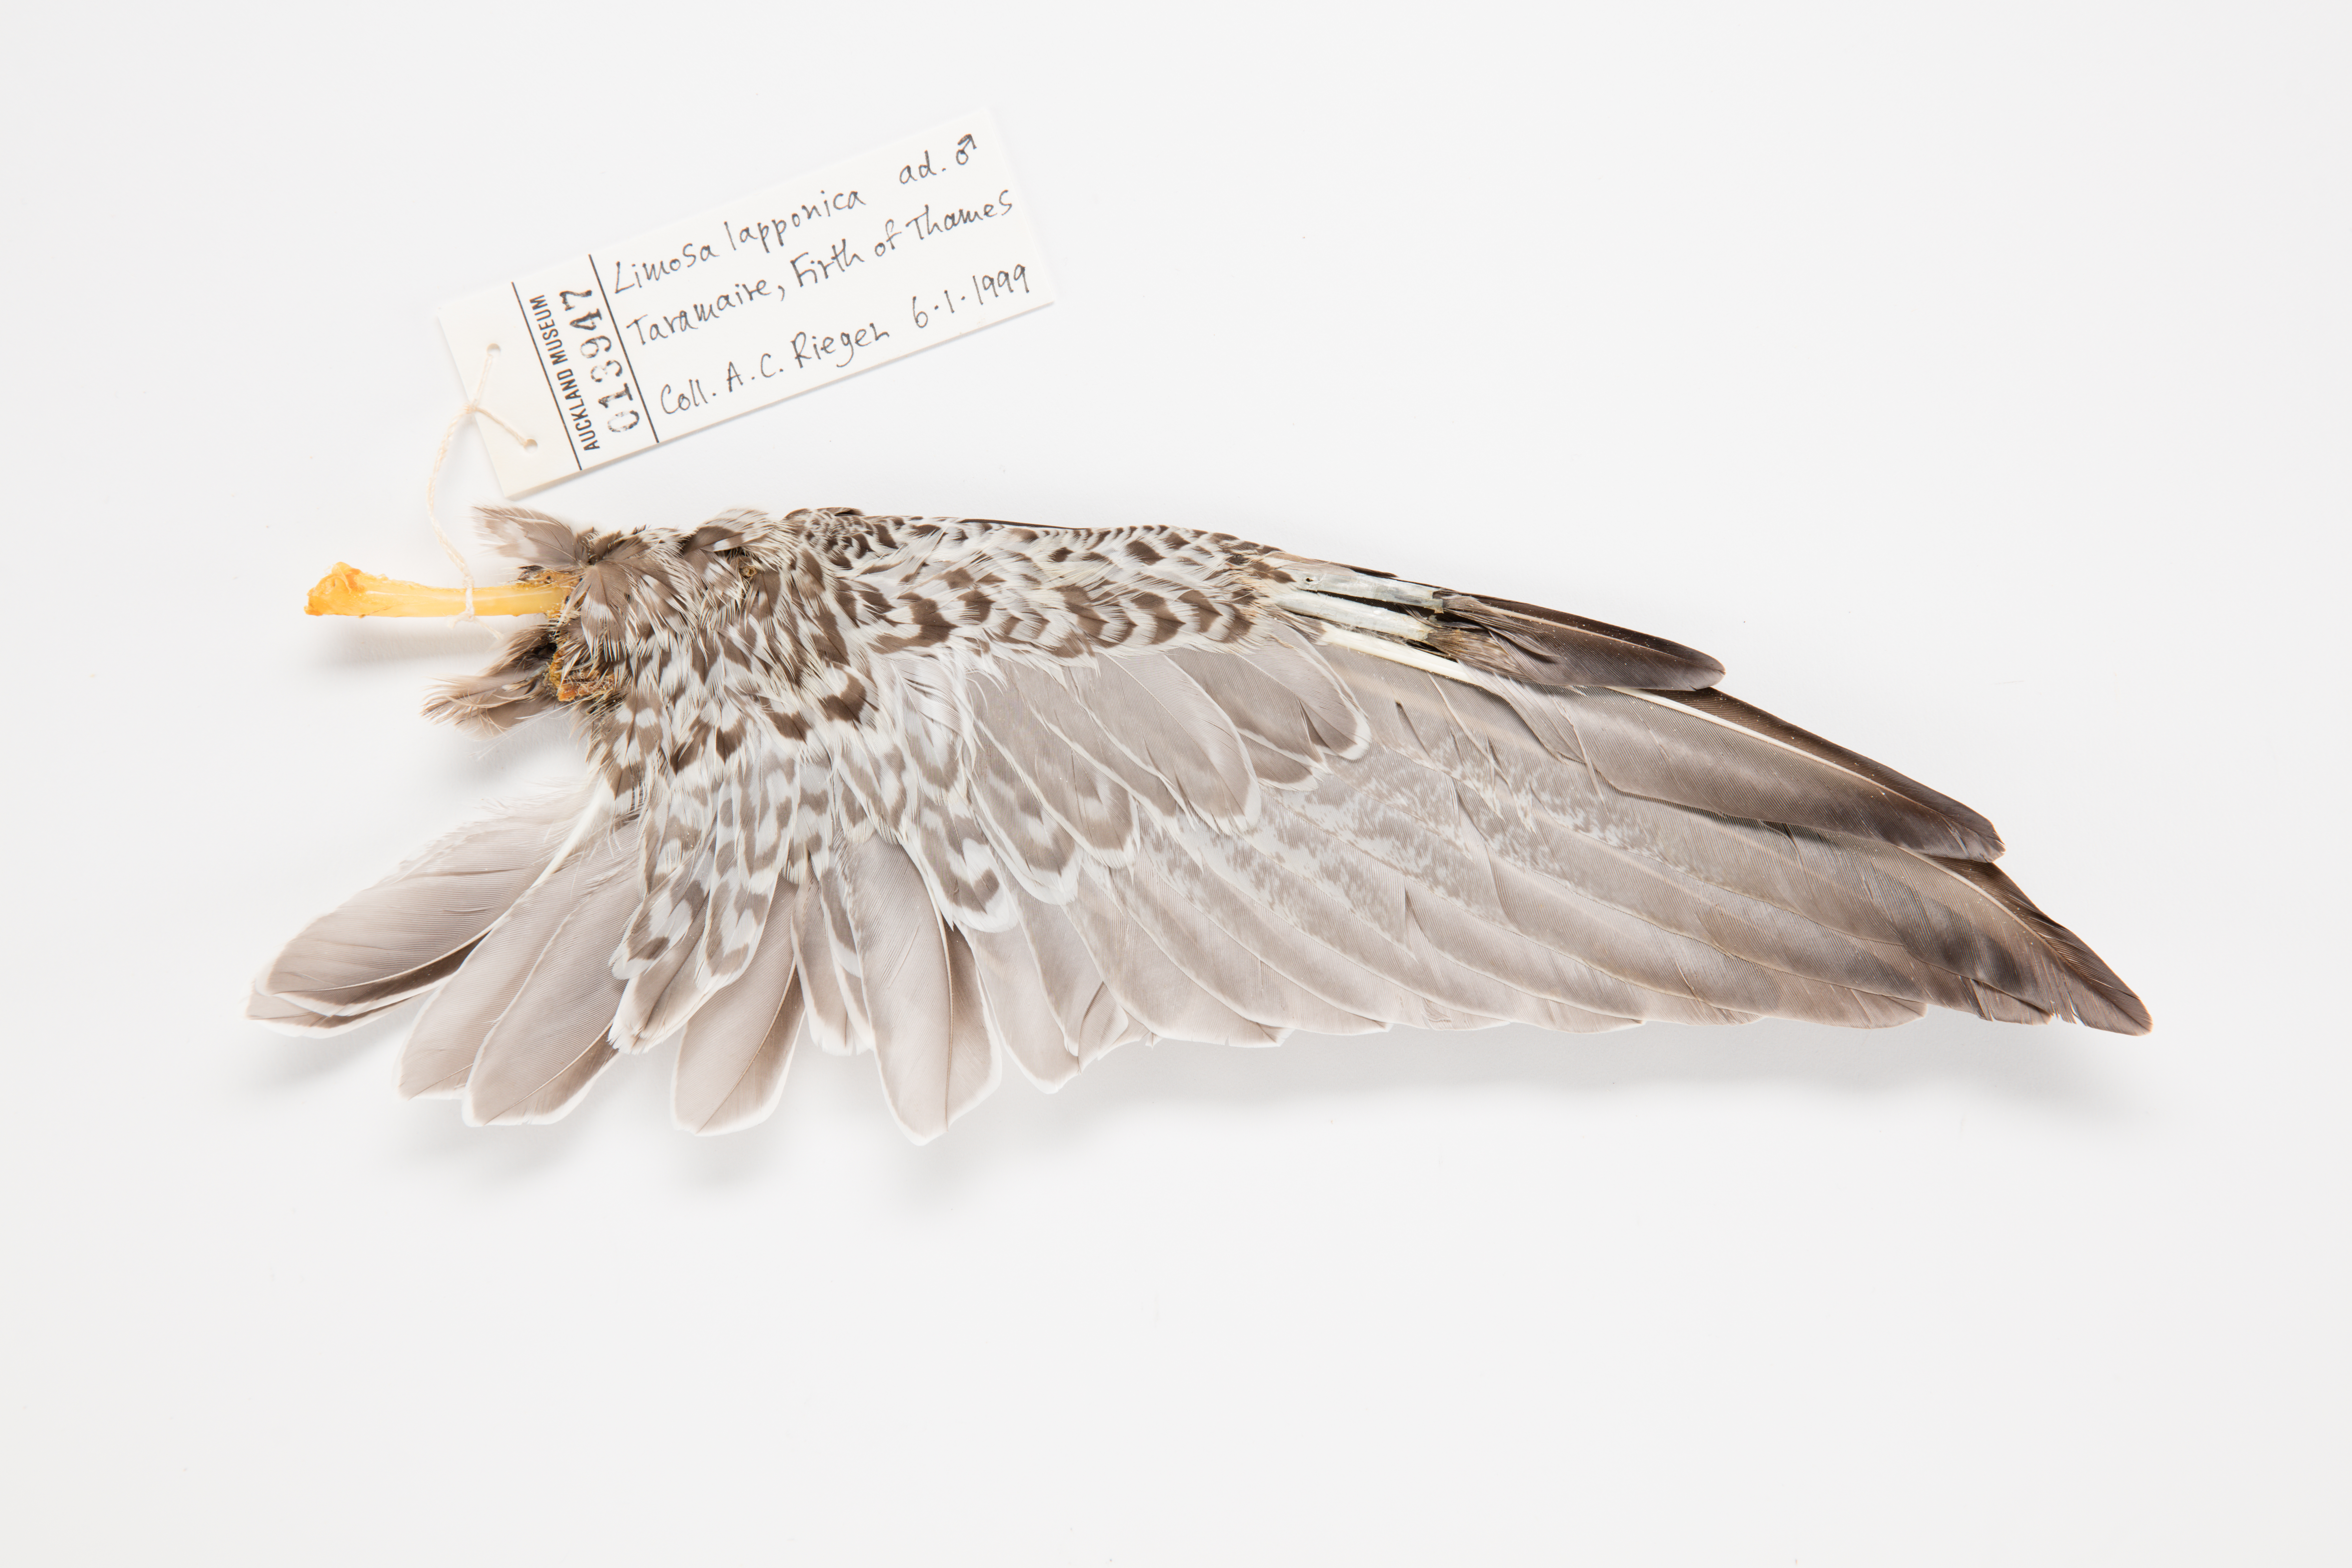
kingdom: Animalia
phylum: Chordata
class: Aves
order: Charadriiformes
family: Scolopacidae
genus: Limosa
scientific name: Limosa lapponica
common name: Bar-tailed godwit
